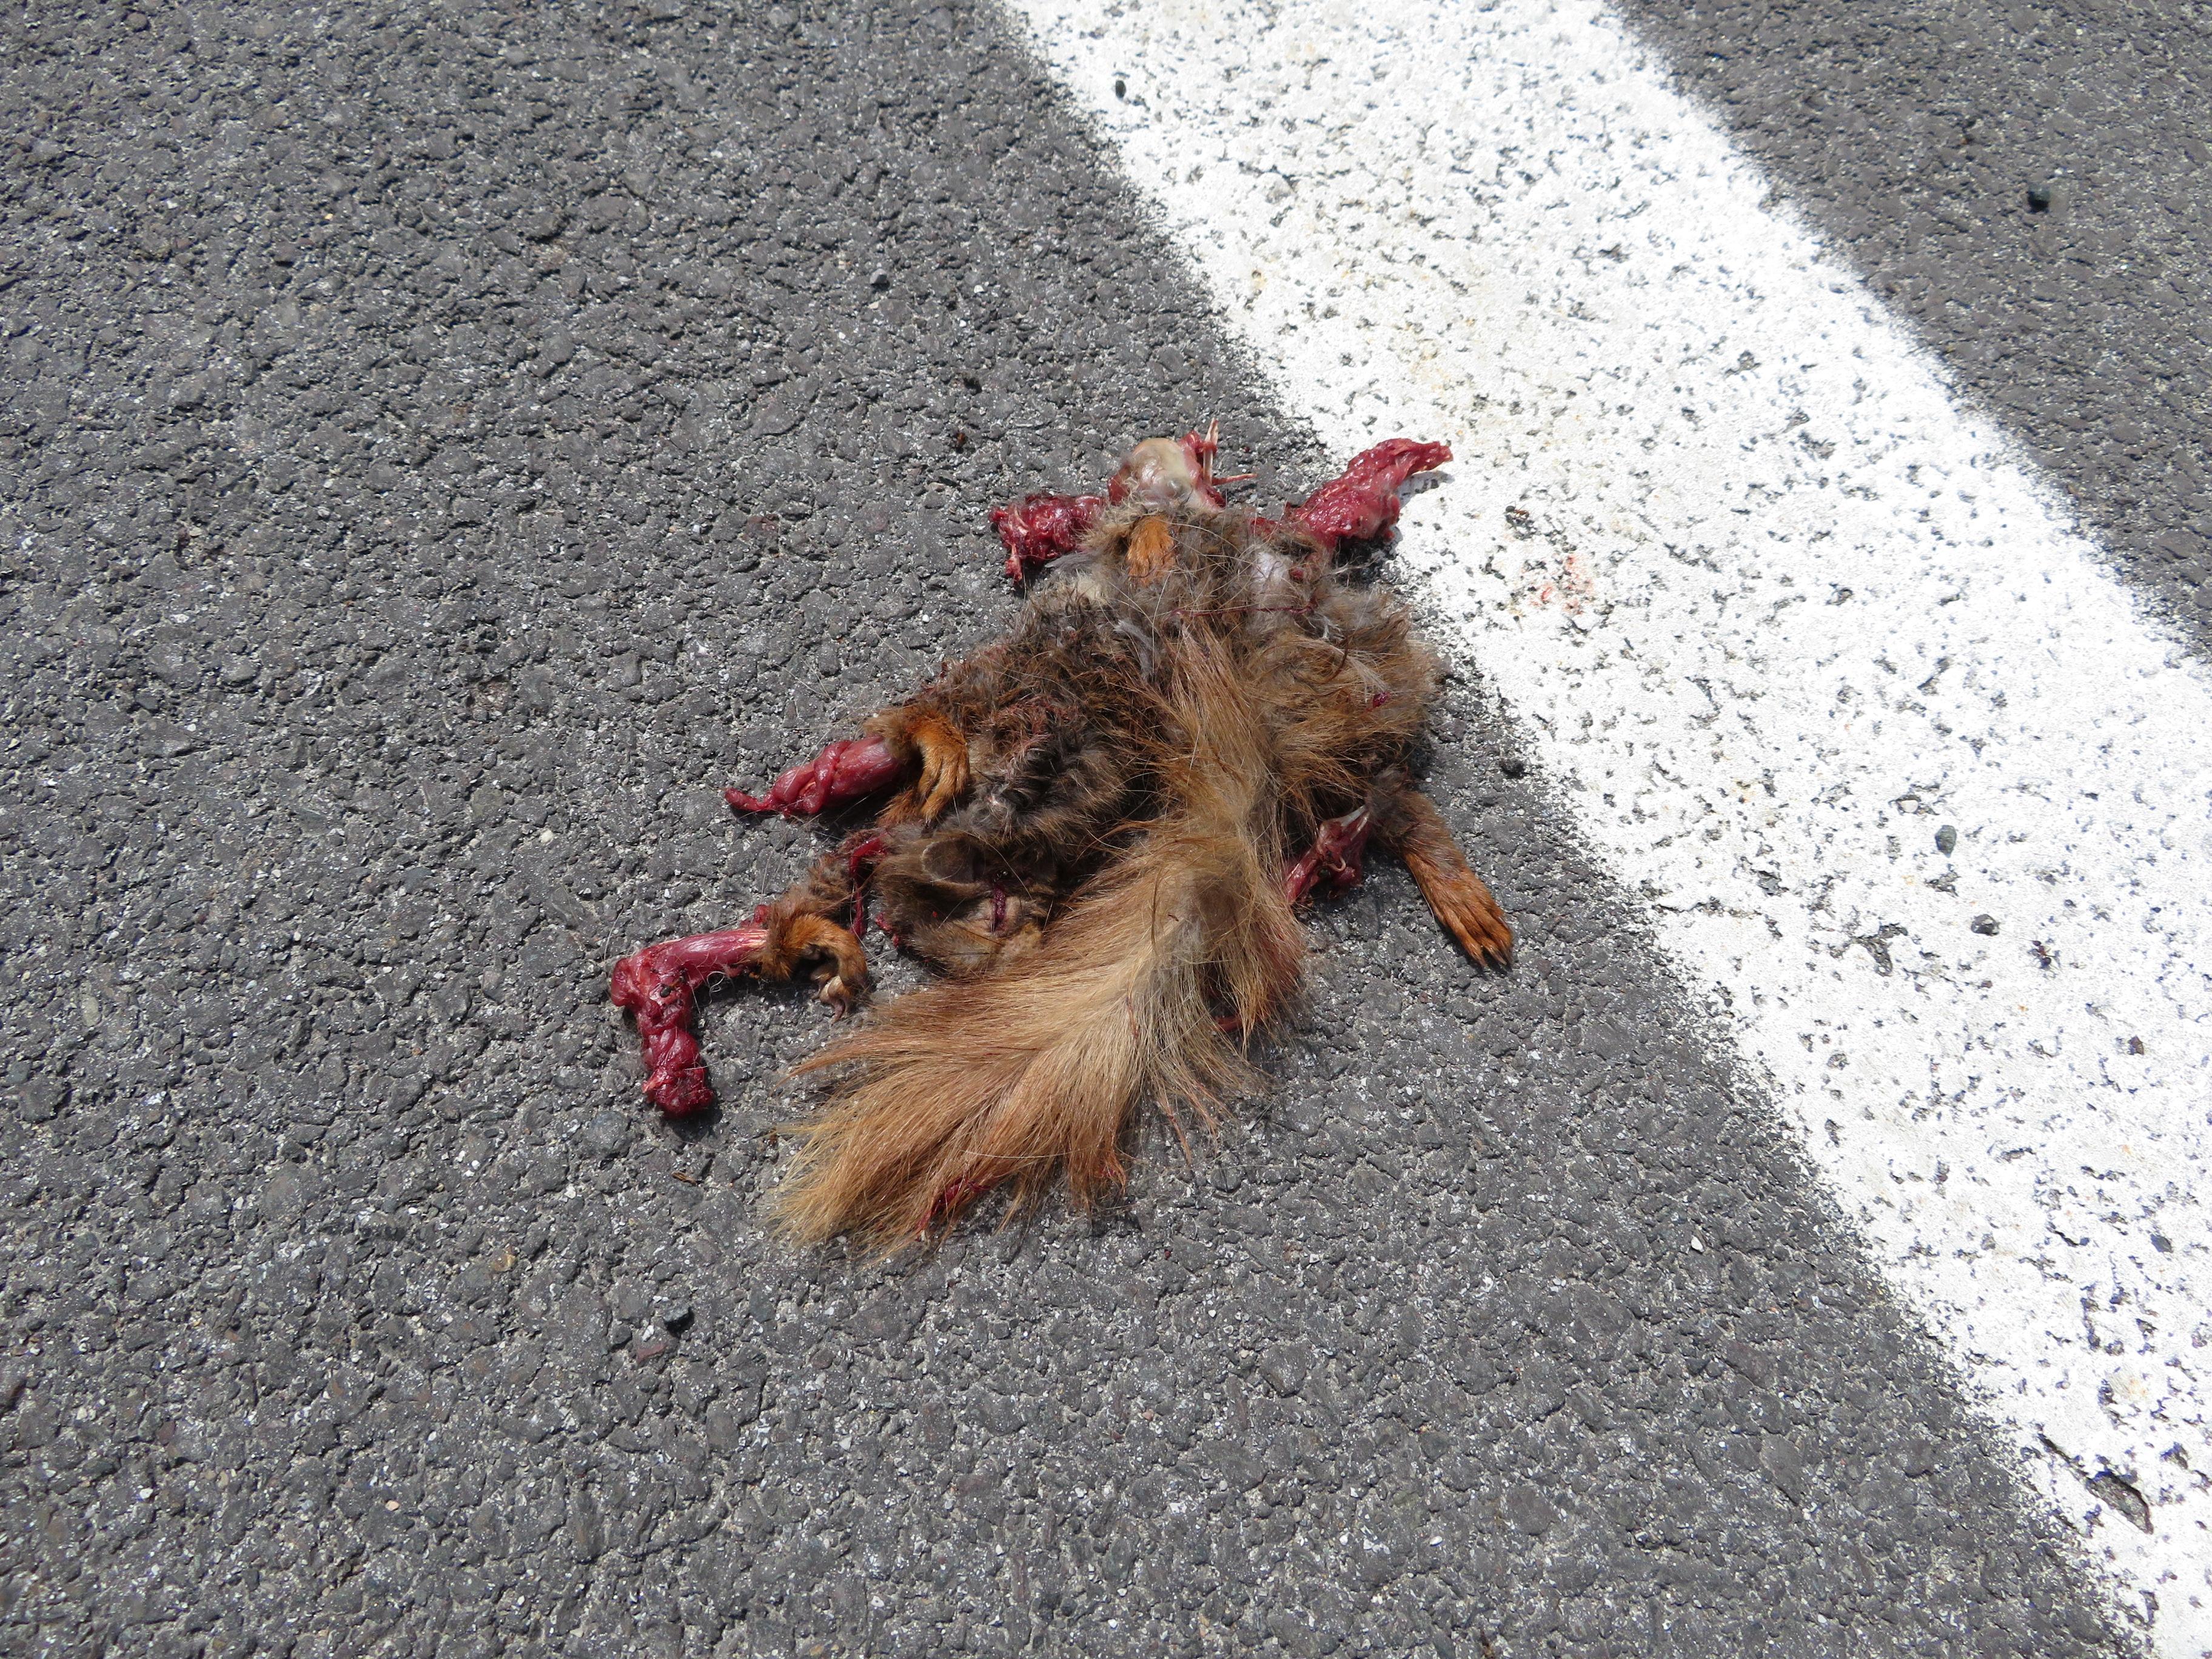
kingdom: Animalia
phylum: Chordata
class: Mammalia
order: Rodentia
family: Sciuridae
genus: Sciurus
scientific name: Sciurus vulgaris
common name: Eurasian red squirrel
